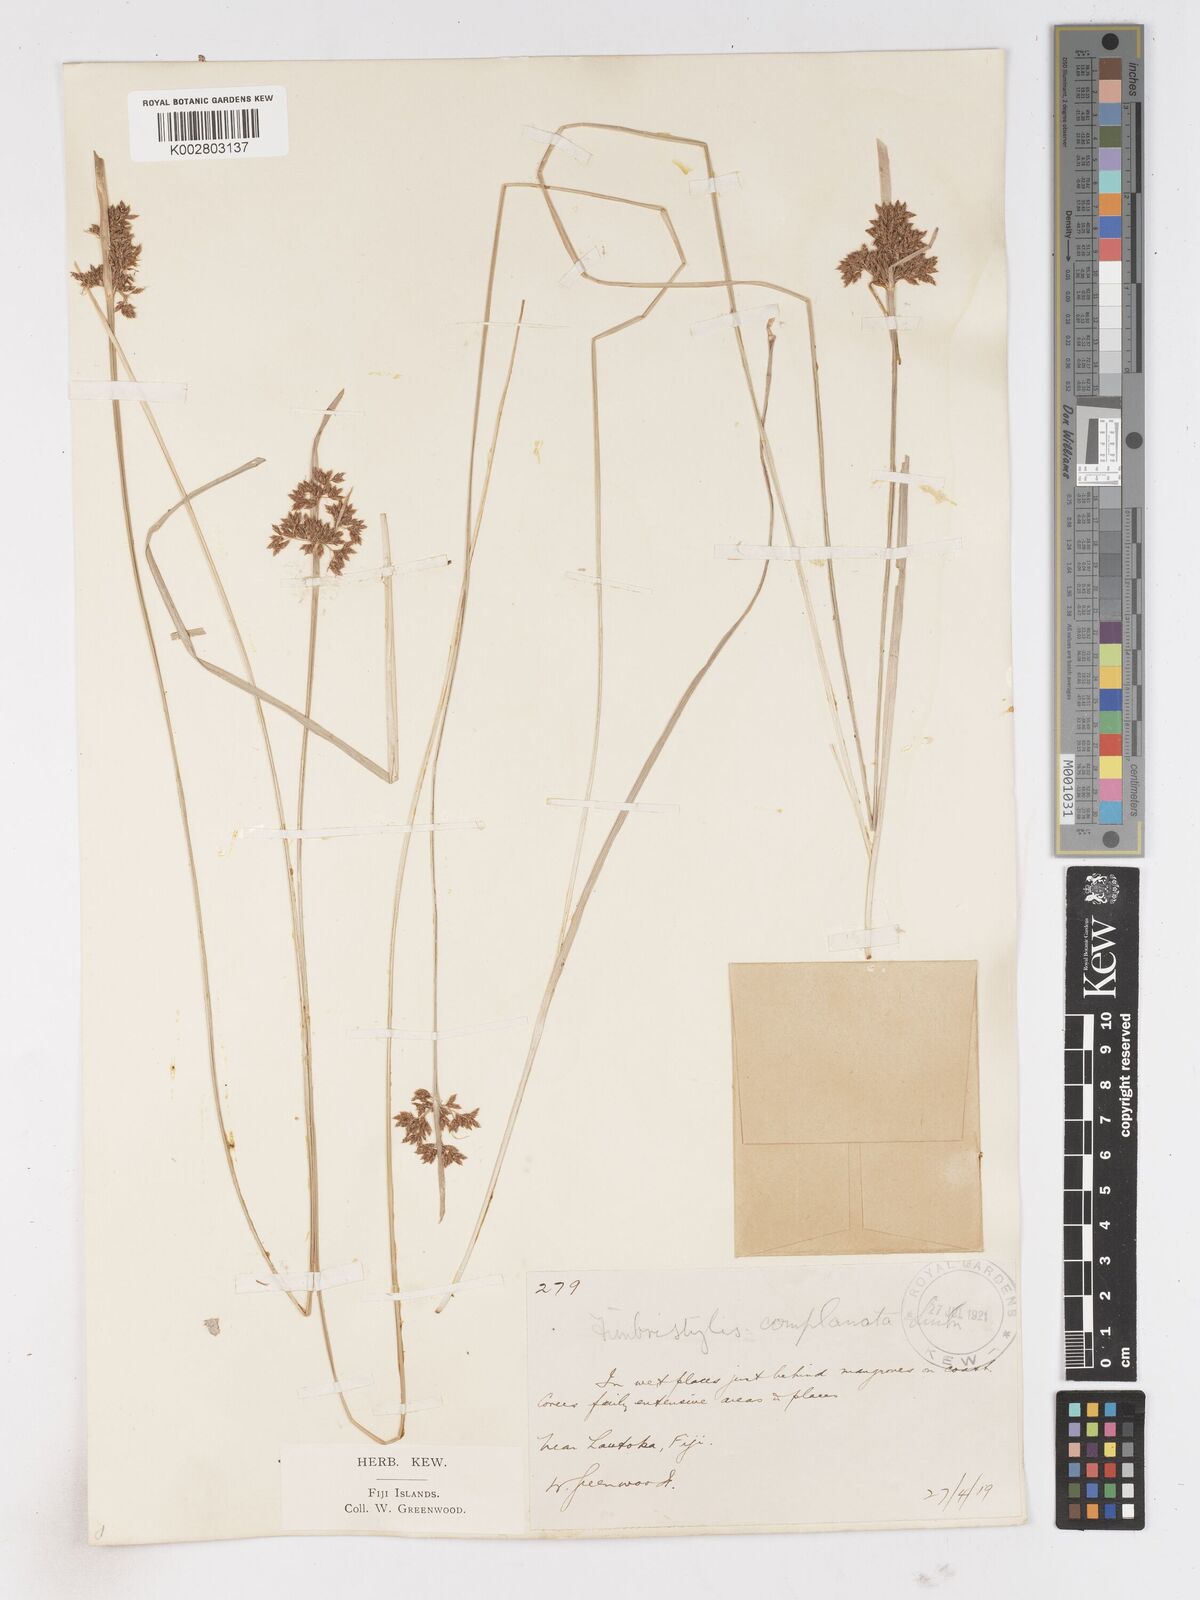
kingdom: Plantae
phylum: Tracheophyta
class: Liliopsida
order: Poales
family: Cyperaceae
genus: Fimbristylis
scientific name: Fimbristylis complanata
